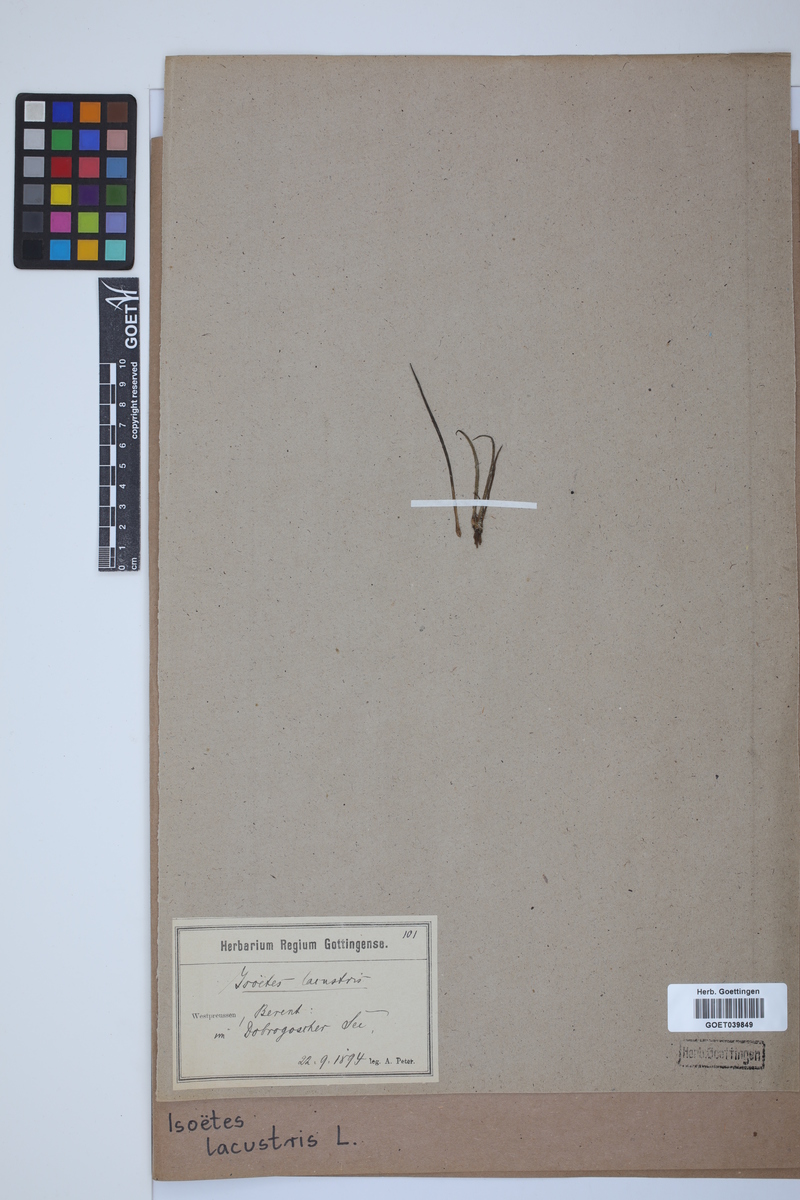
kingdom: Plantae
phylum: Tracheophyta
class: Lycopodiopsida
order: Isoetales
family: Isoetaceae
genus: Isoetes
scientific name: Isoetes lacustris
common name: Common quillwort
